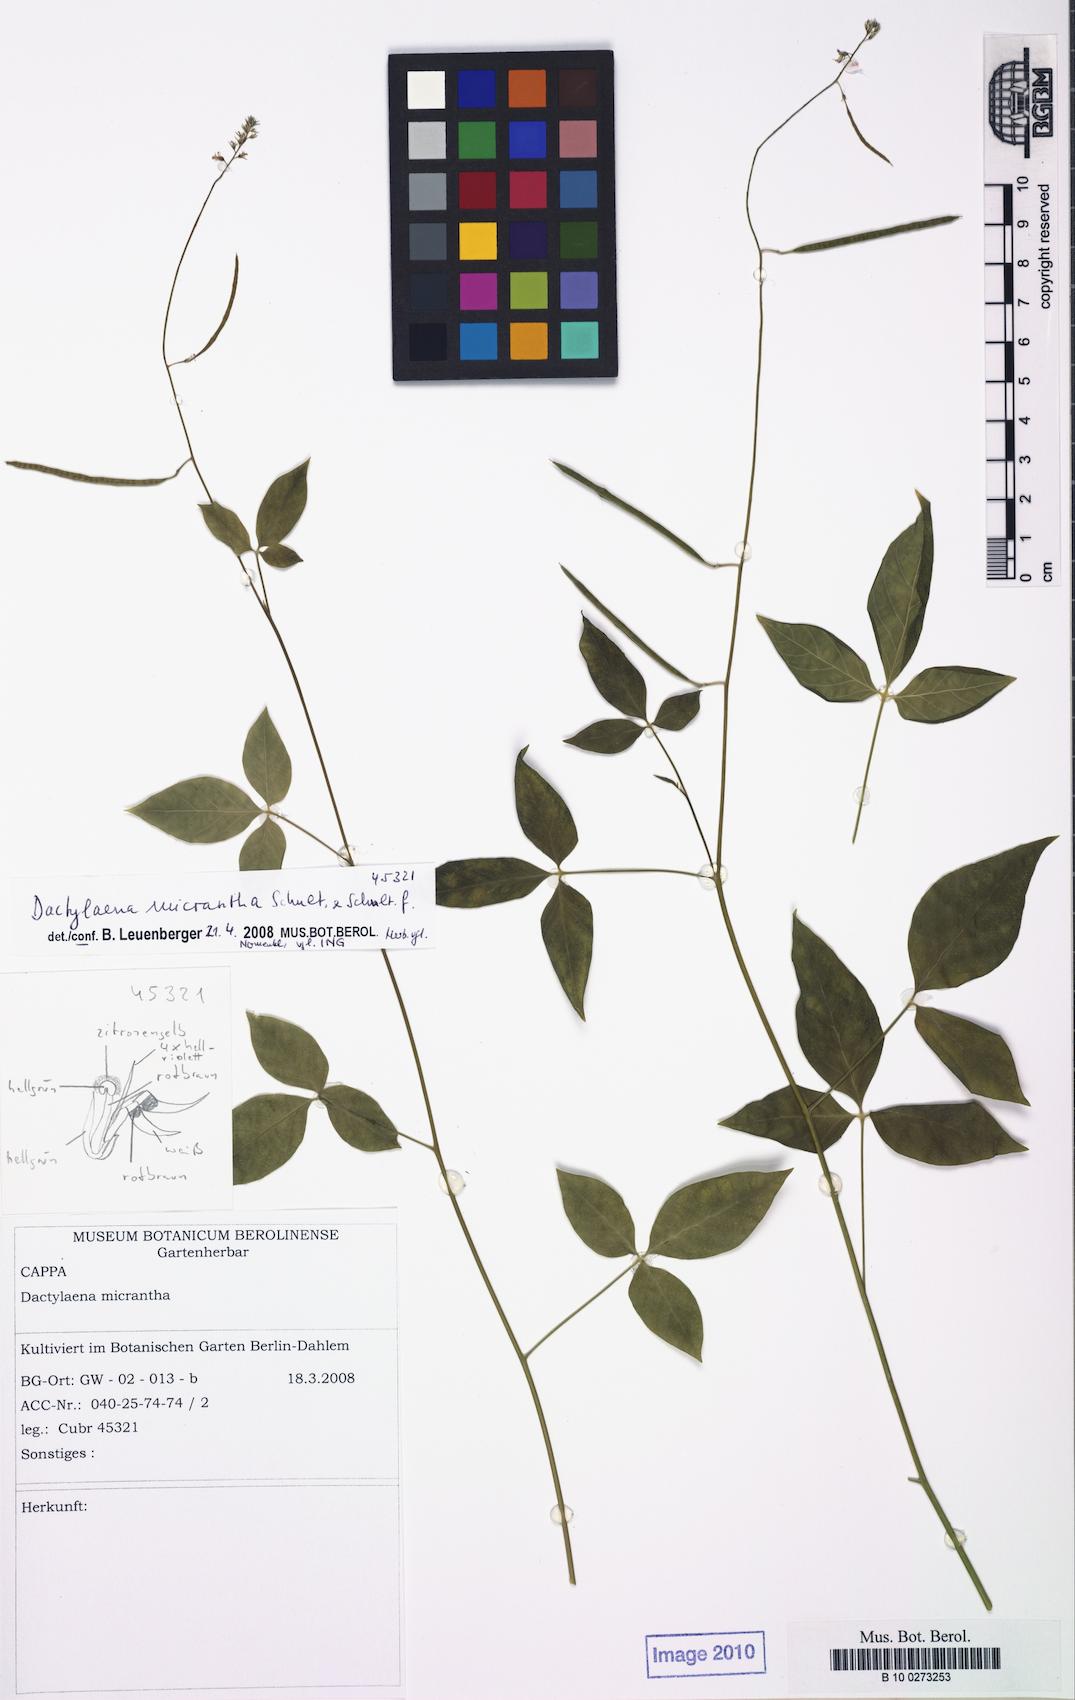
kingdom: Plantae
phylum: Tracheophyta
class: Magnoliopsida
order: Brassicales
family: Cleomaceae
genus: Dactylaena
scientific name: Dactylaena monandra
